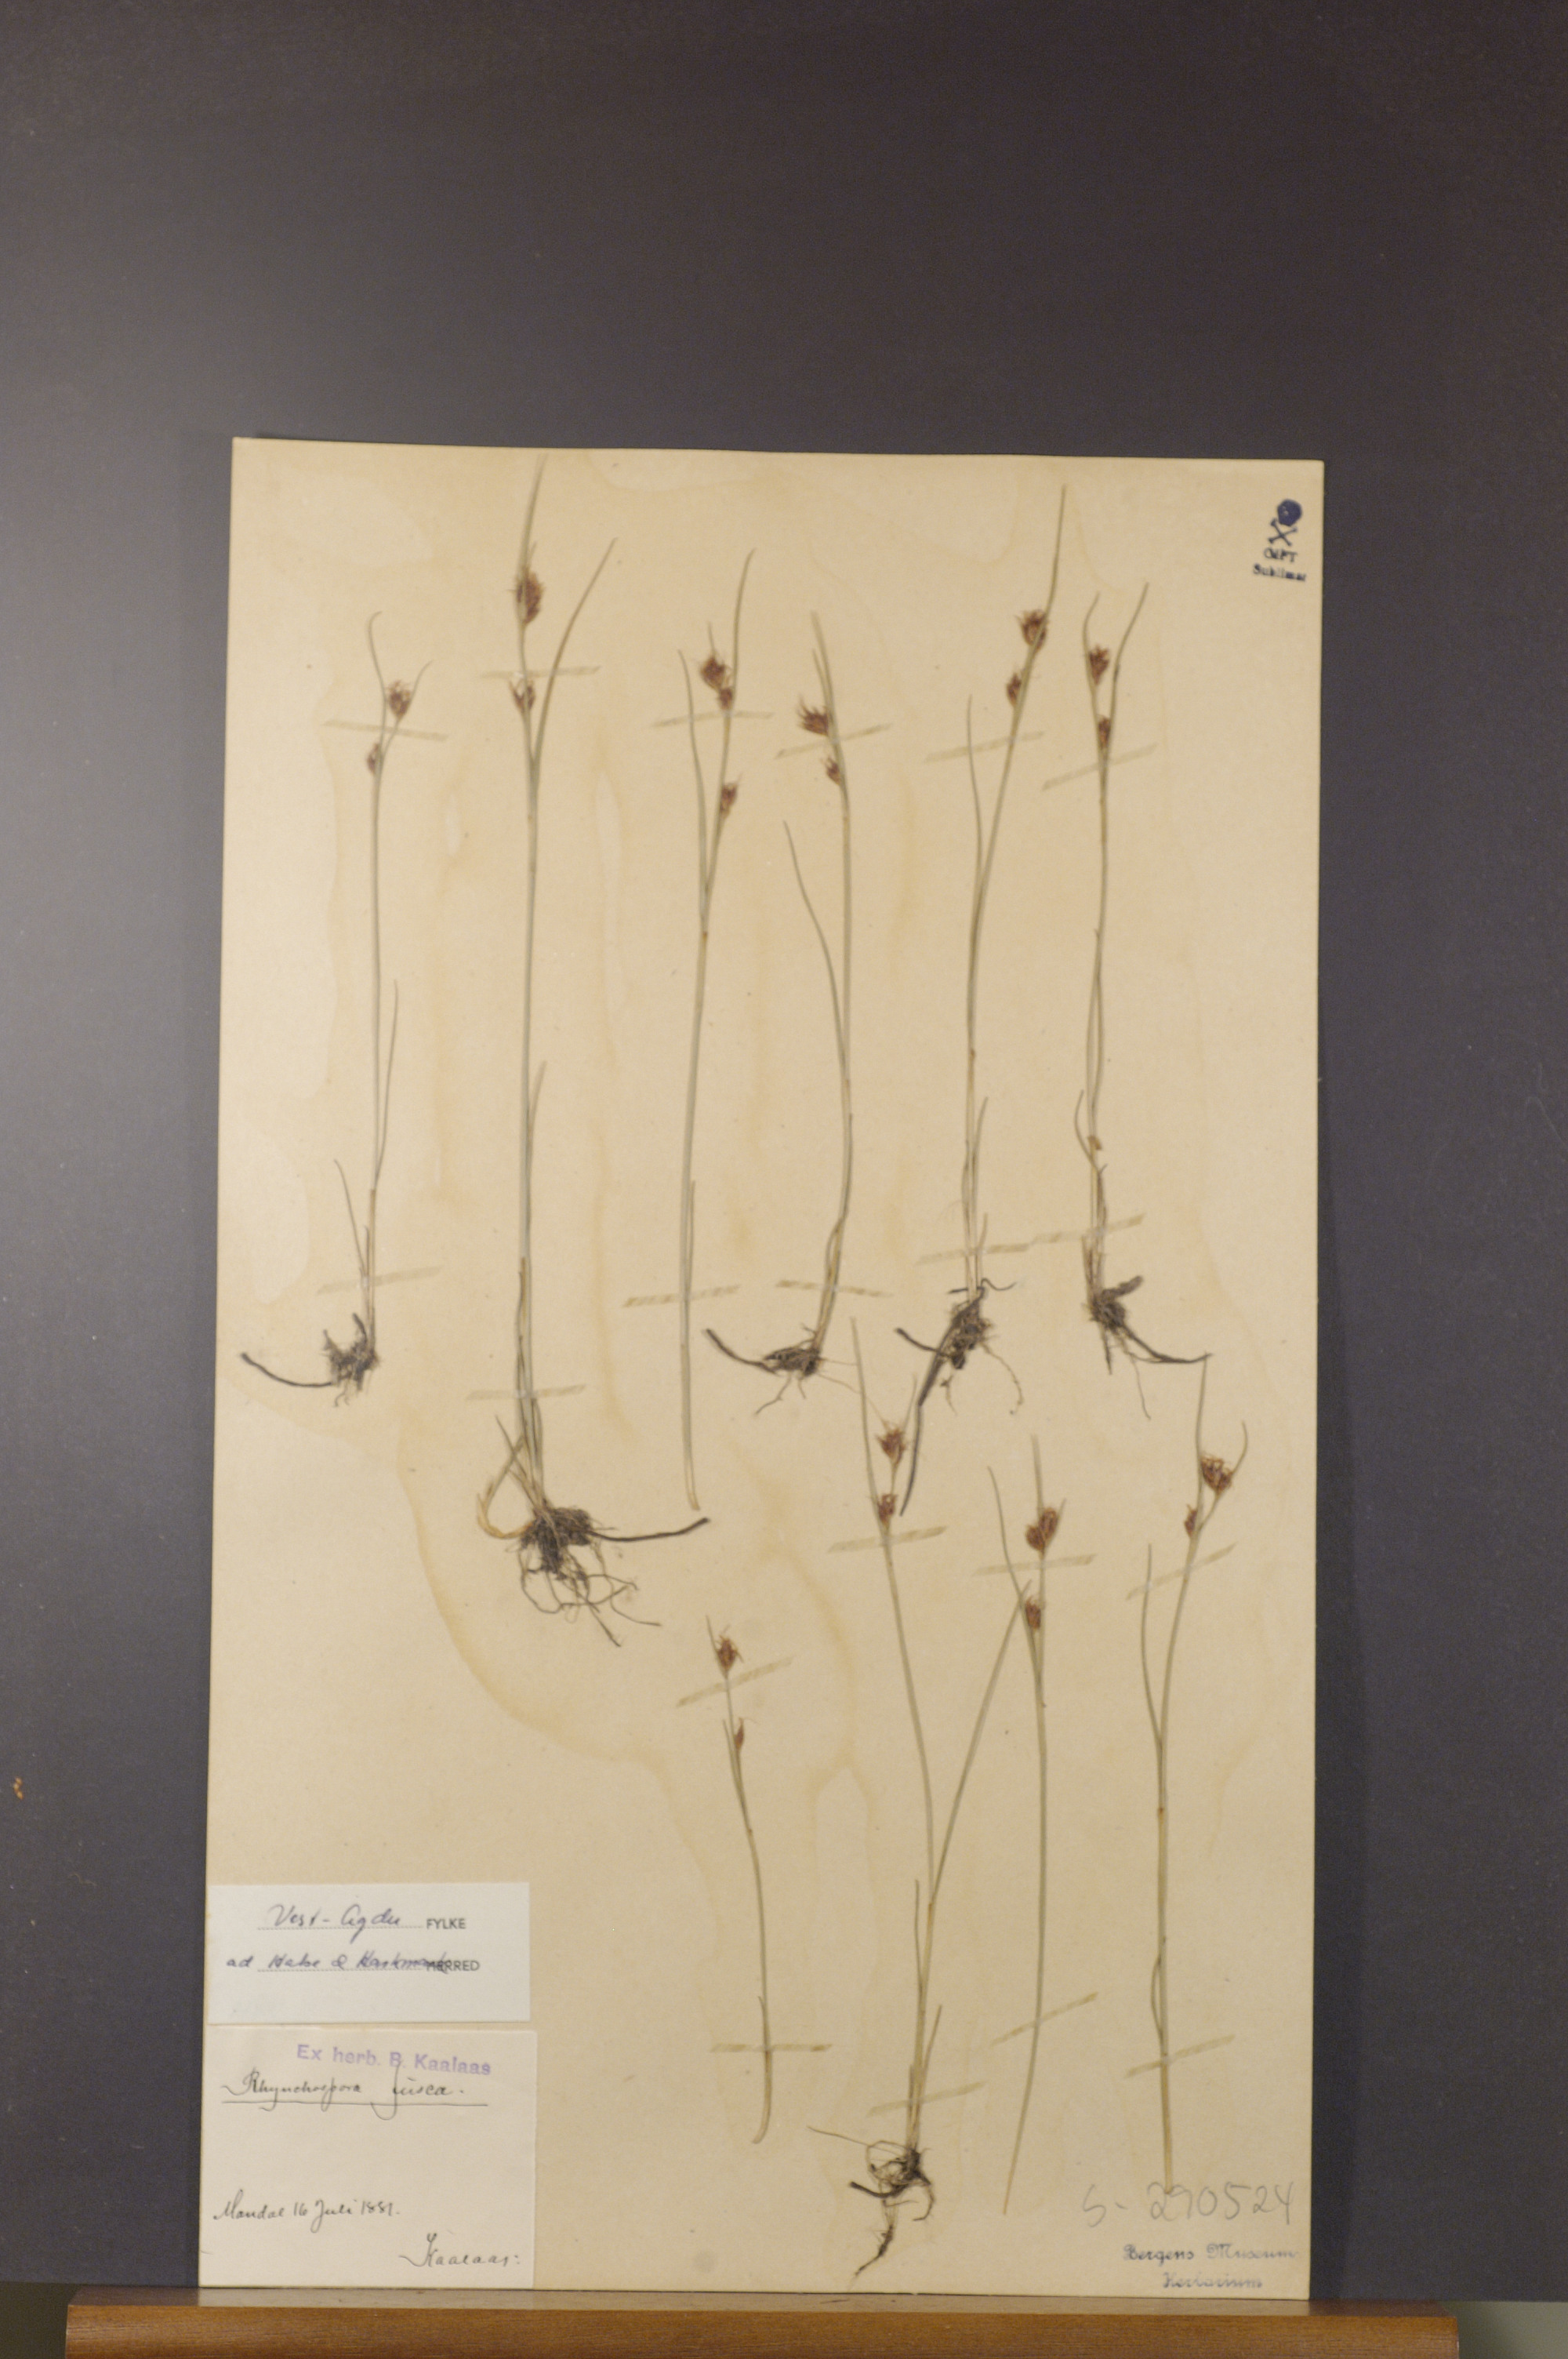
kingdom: Plantae
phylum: Tracheophyta
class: Liliopsida
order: Poales
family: Cyperaceae
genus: Rhynchospora
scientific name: Rhynchospora fusca
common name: Brown beak-sedge
